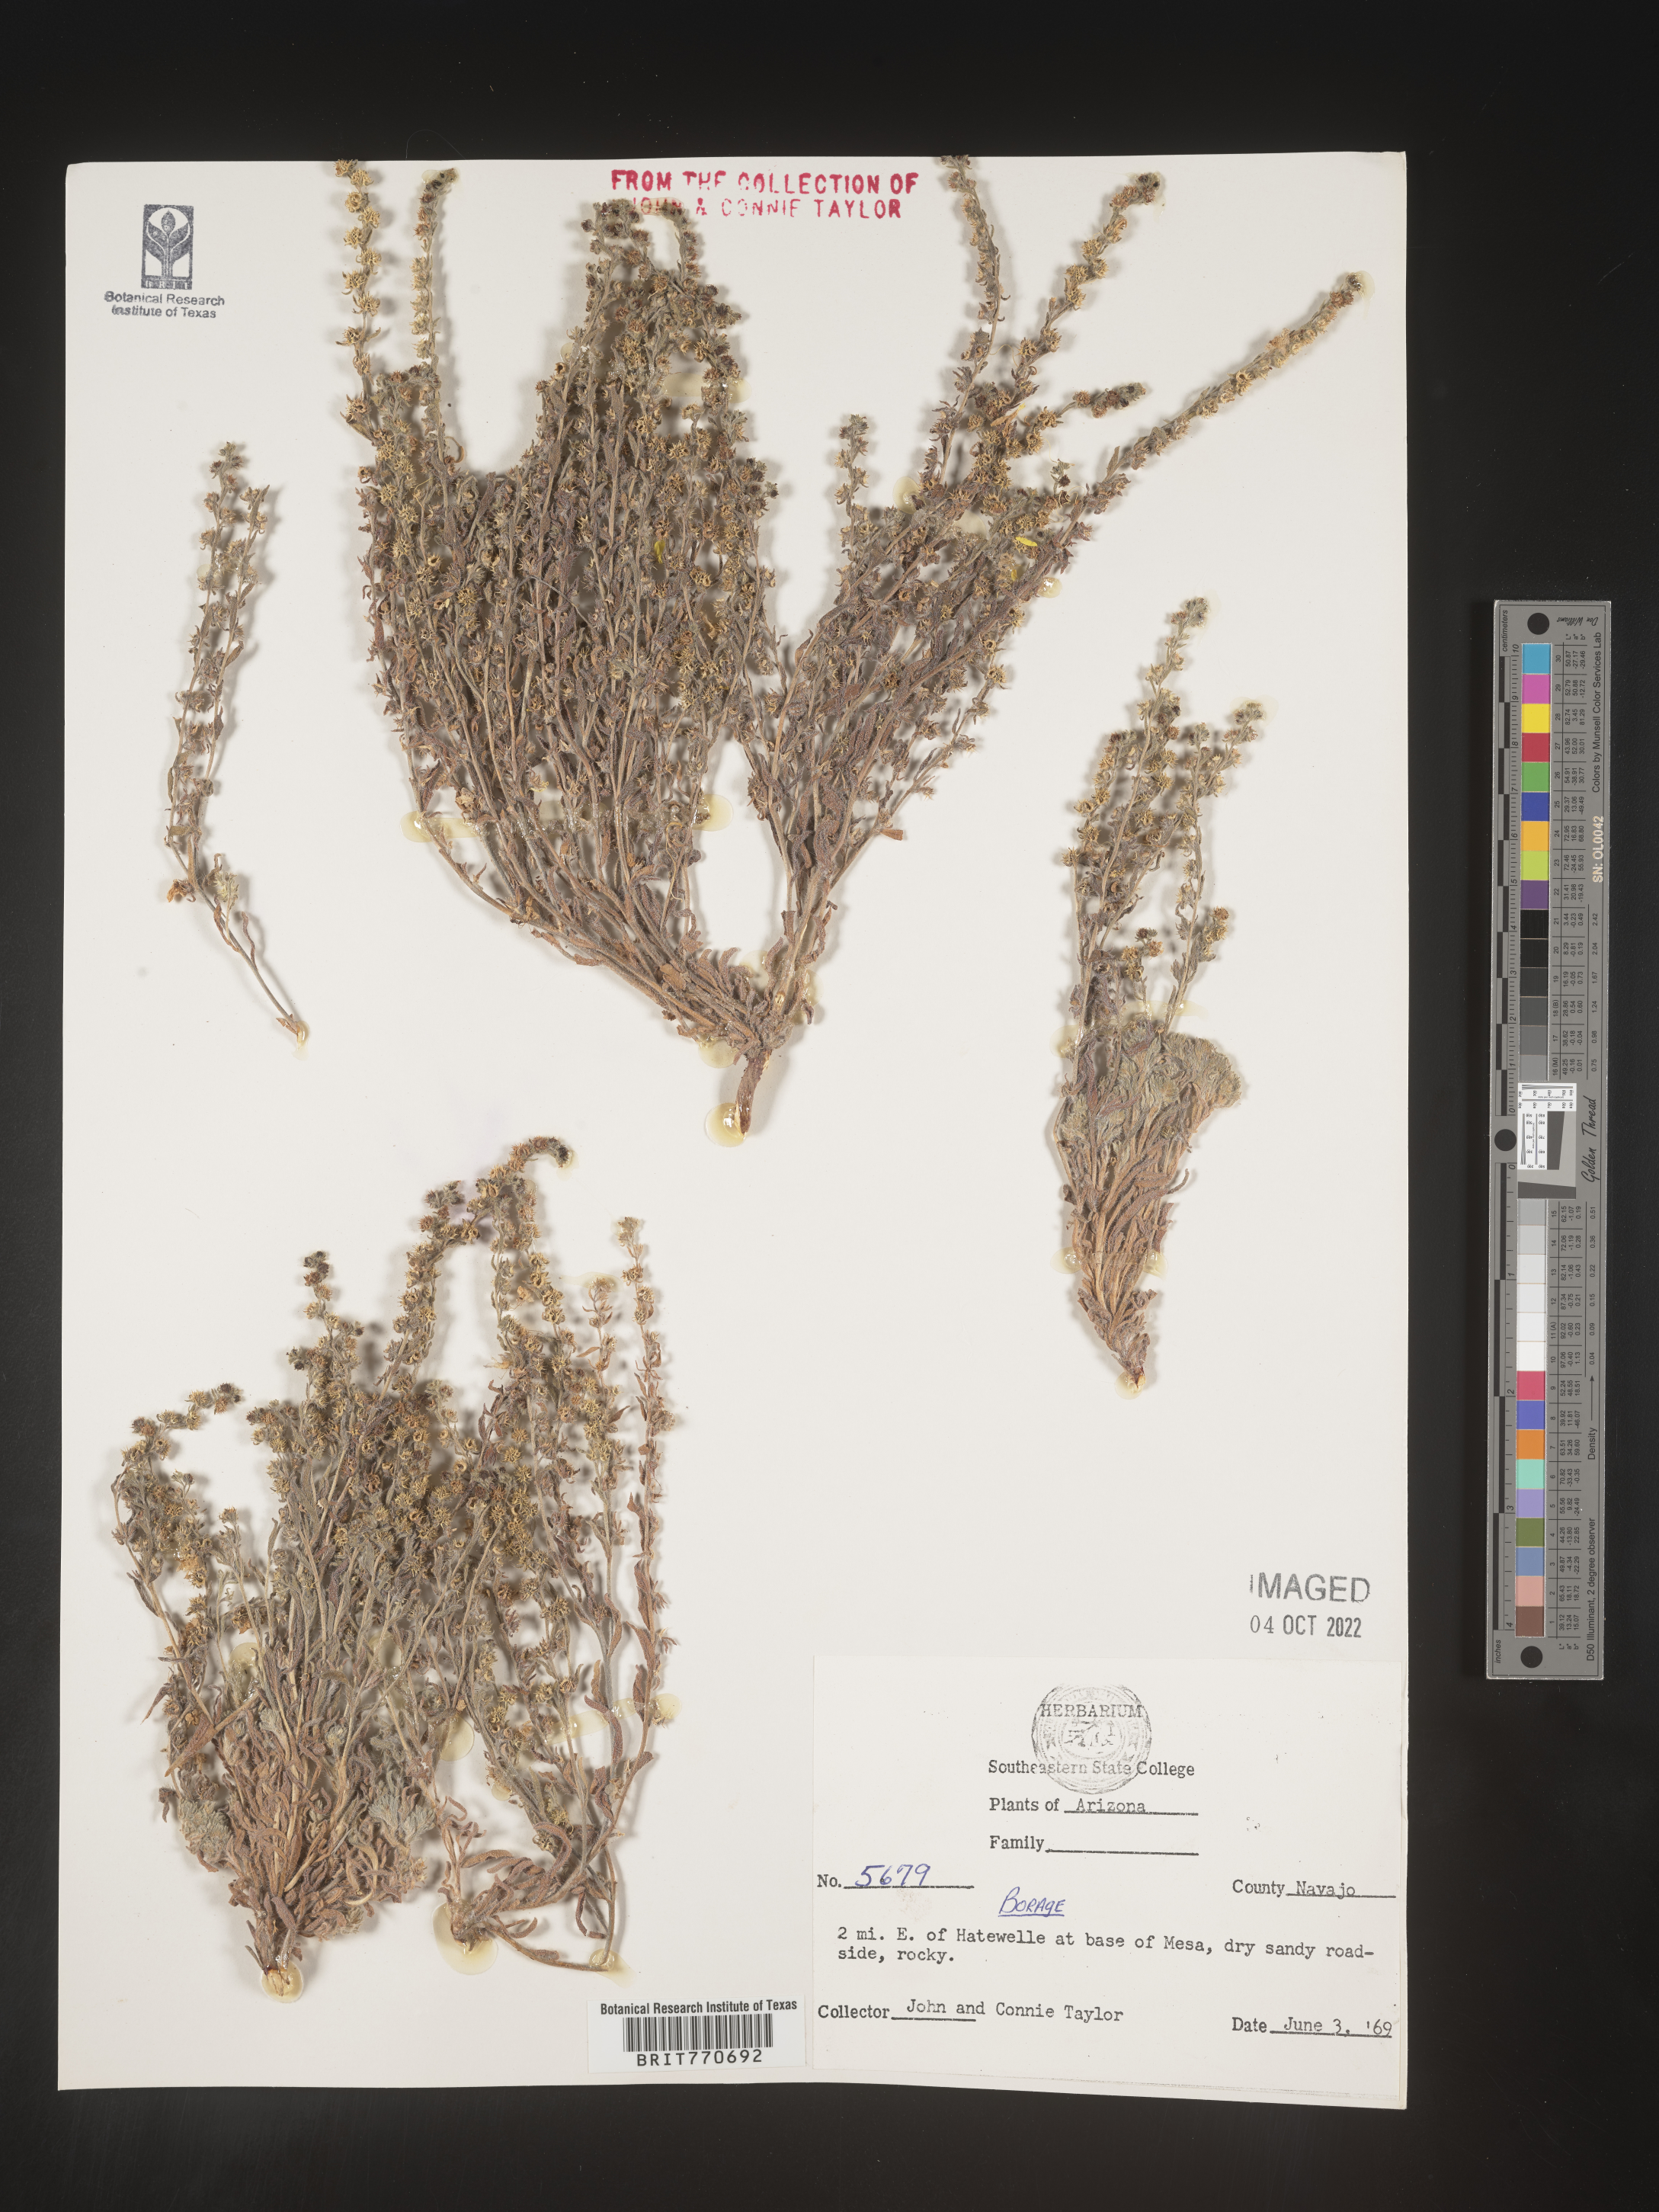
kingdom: Plantae
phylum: Tracheophyta
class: Magnoliopsida
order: Boraginales
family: Boraginaceae
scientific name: Boraginaceae
